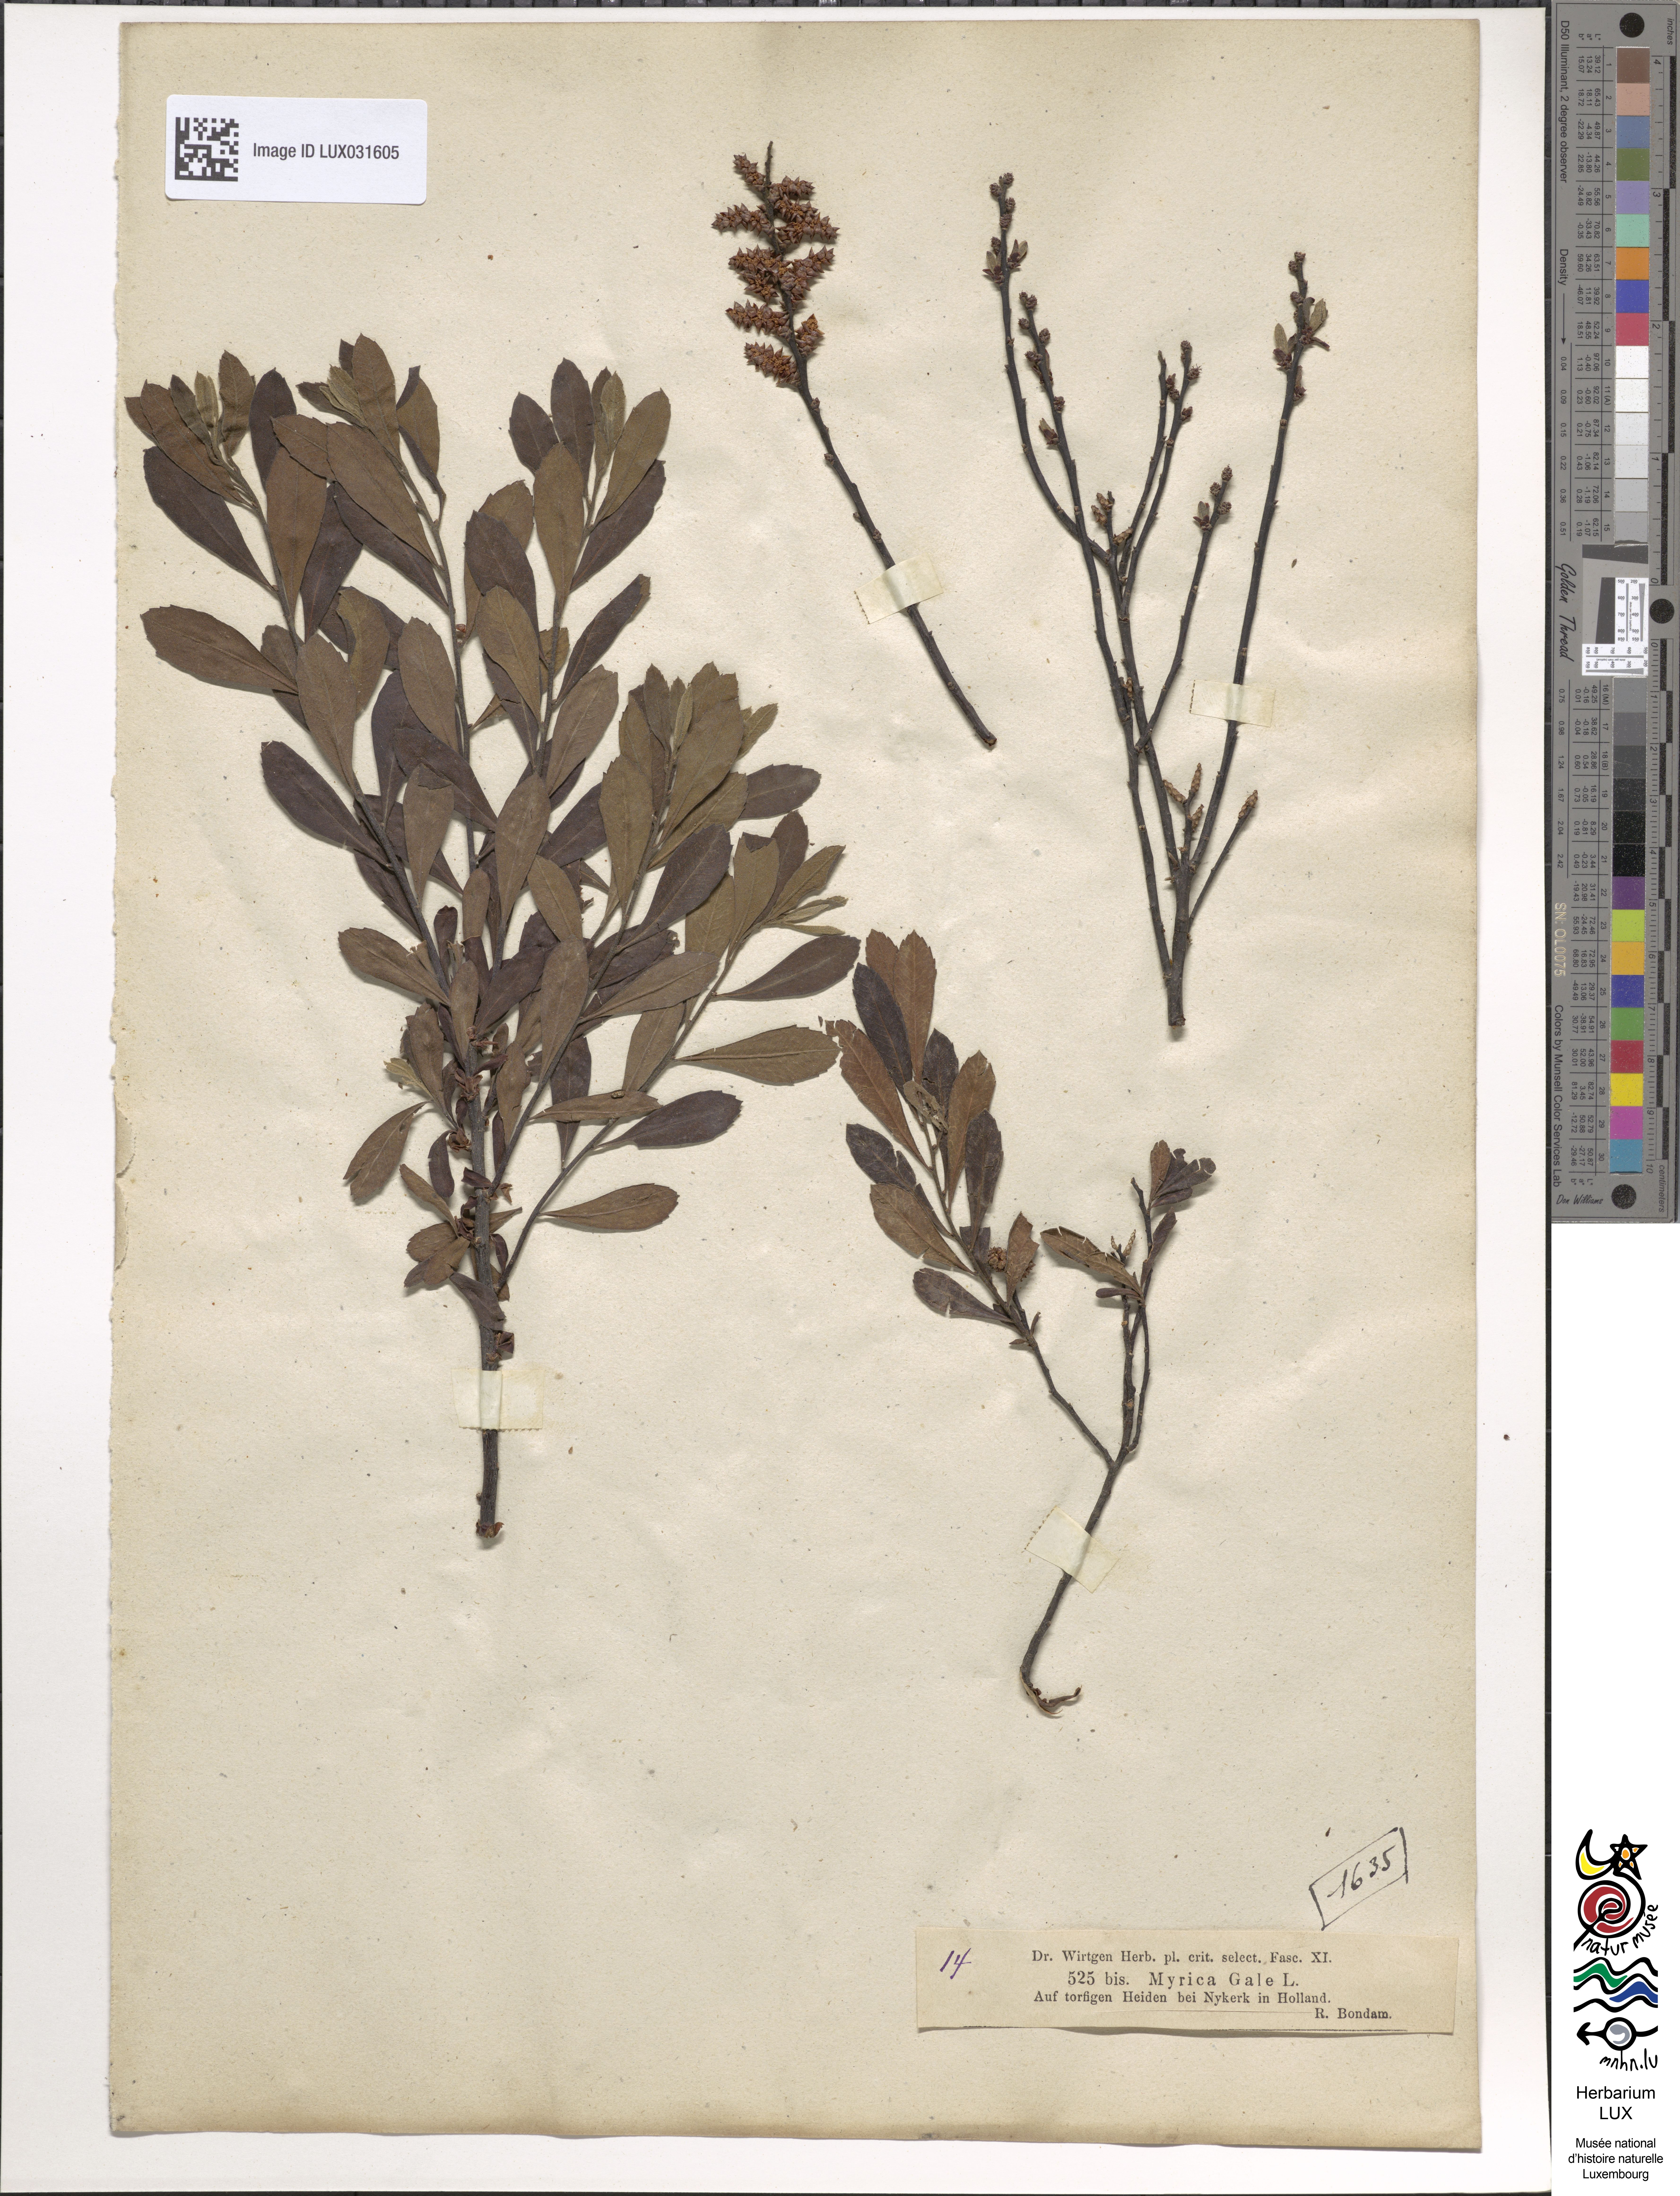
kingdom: Plantae
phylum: Tracheophyta
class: Magnoliopsida
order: Fagales
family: Myricaceae
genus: Myrica
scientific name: Myrica gale
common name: Sweet gale
